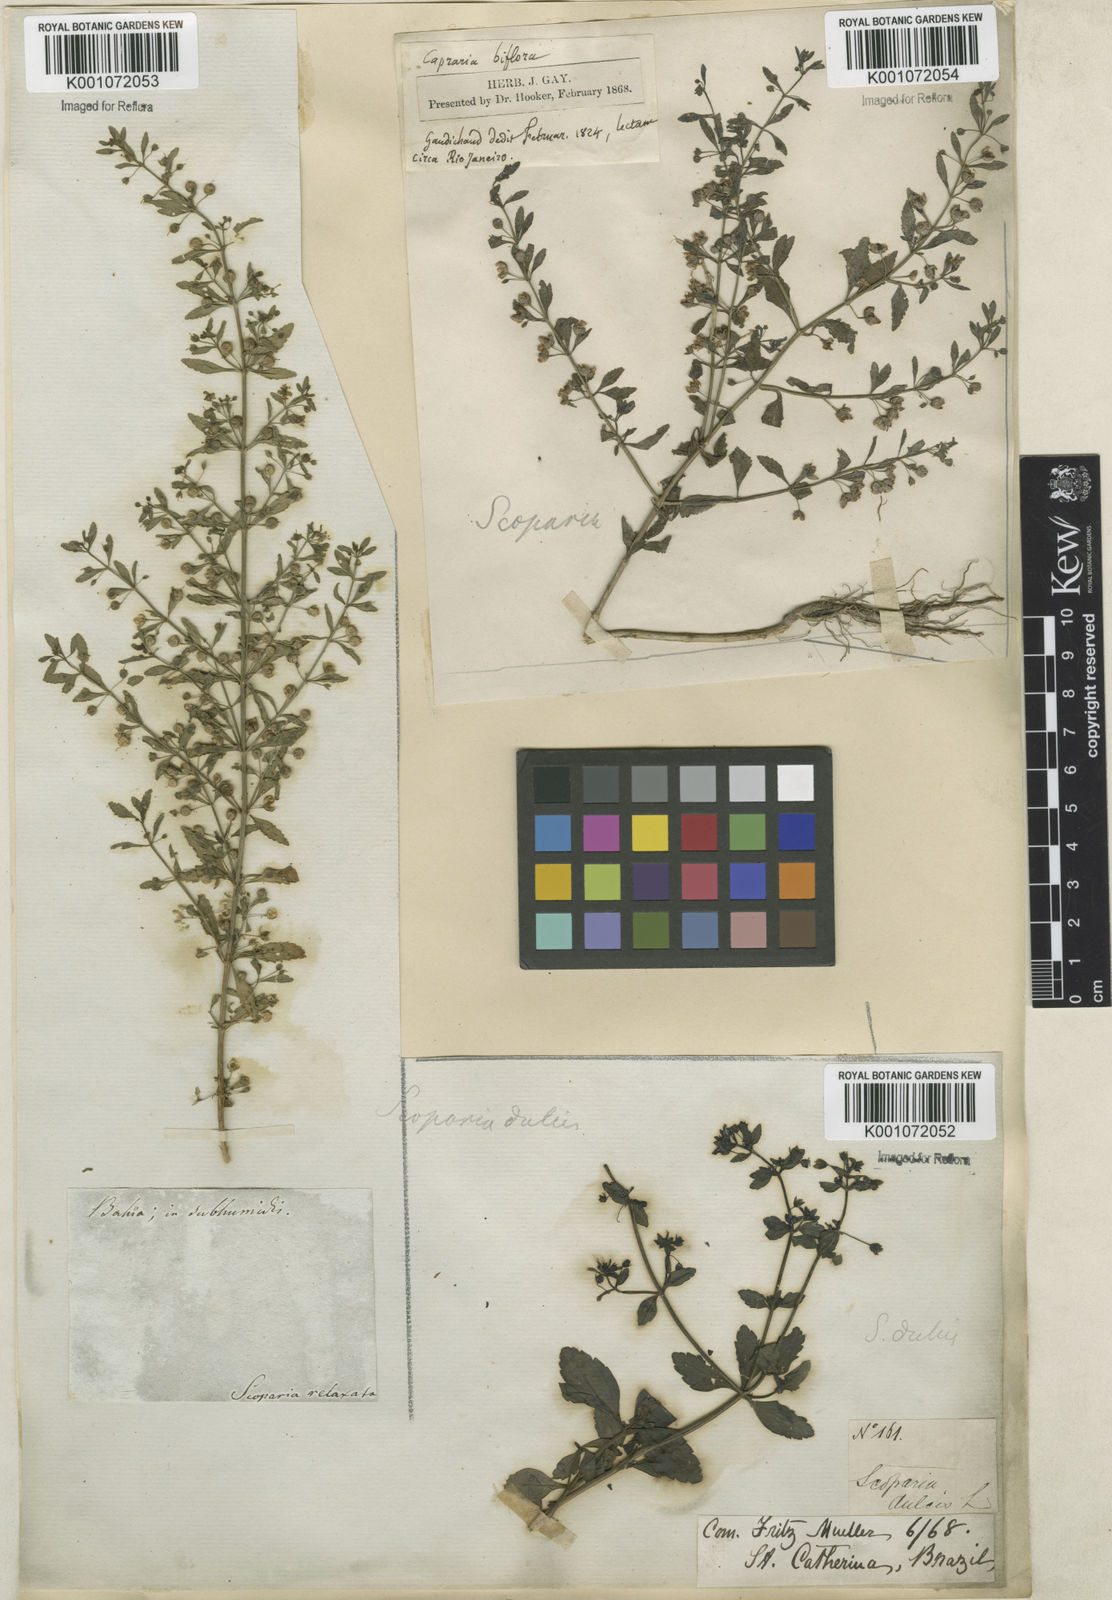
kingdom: Plantae
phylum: Tracheophyta
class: Magnoliopsida
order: Lamiales
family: Plantaginaceae
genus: Scoparia
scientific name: Scoparia dulcis
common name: Scoparia-weed
